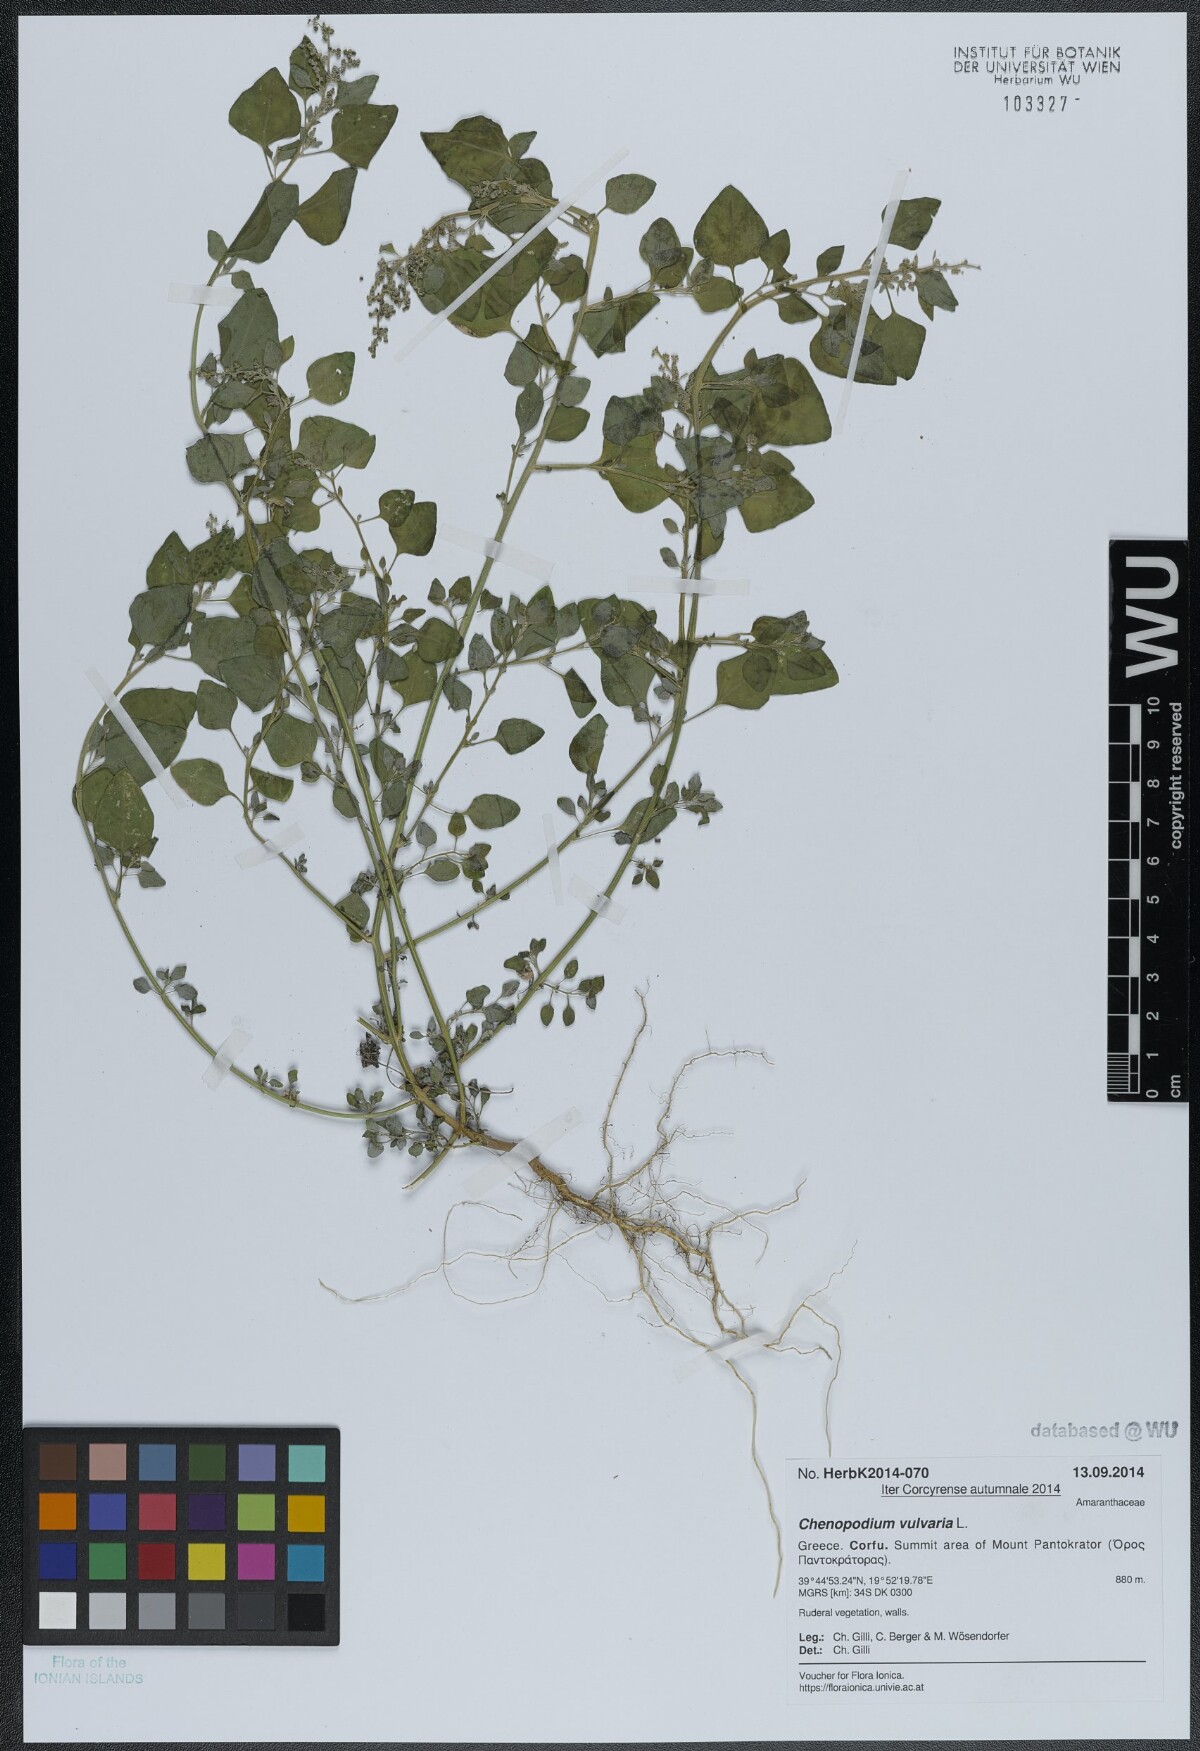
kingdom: Plantae
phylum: Tracheophyta
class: Magnoliopsida
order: Caryophyllales
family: Amaranthaceae
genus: Chenopodium
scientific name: Chenopodium vulvaria
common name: Stinking goosefoot
